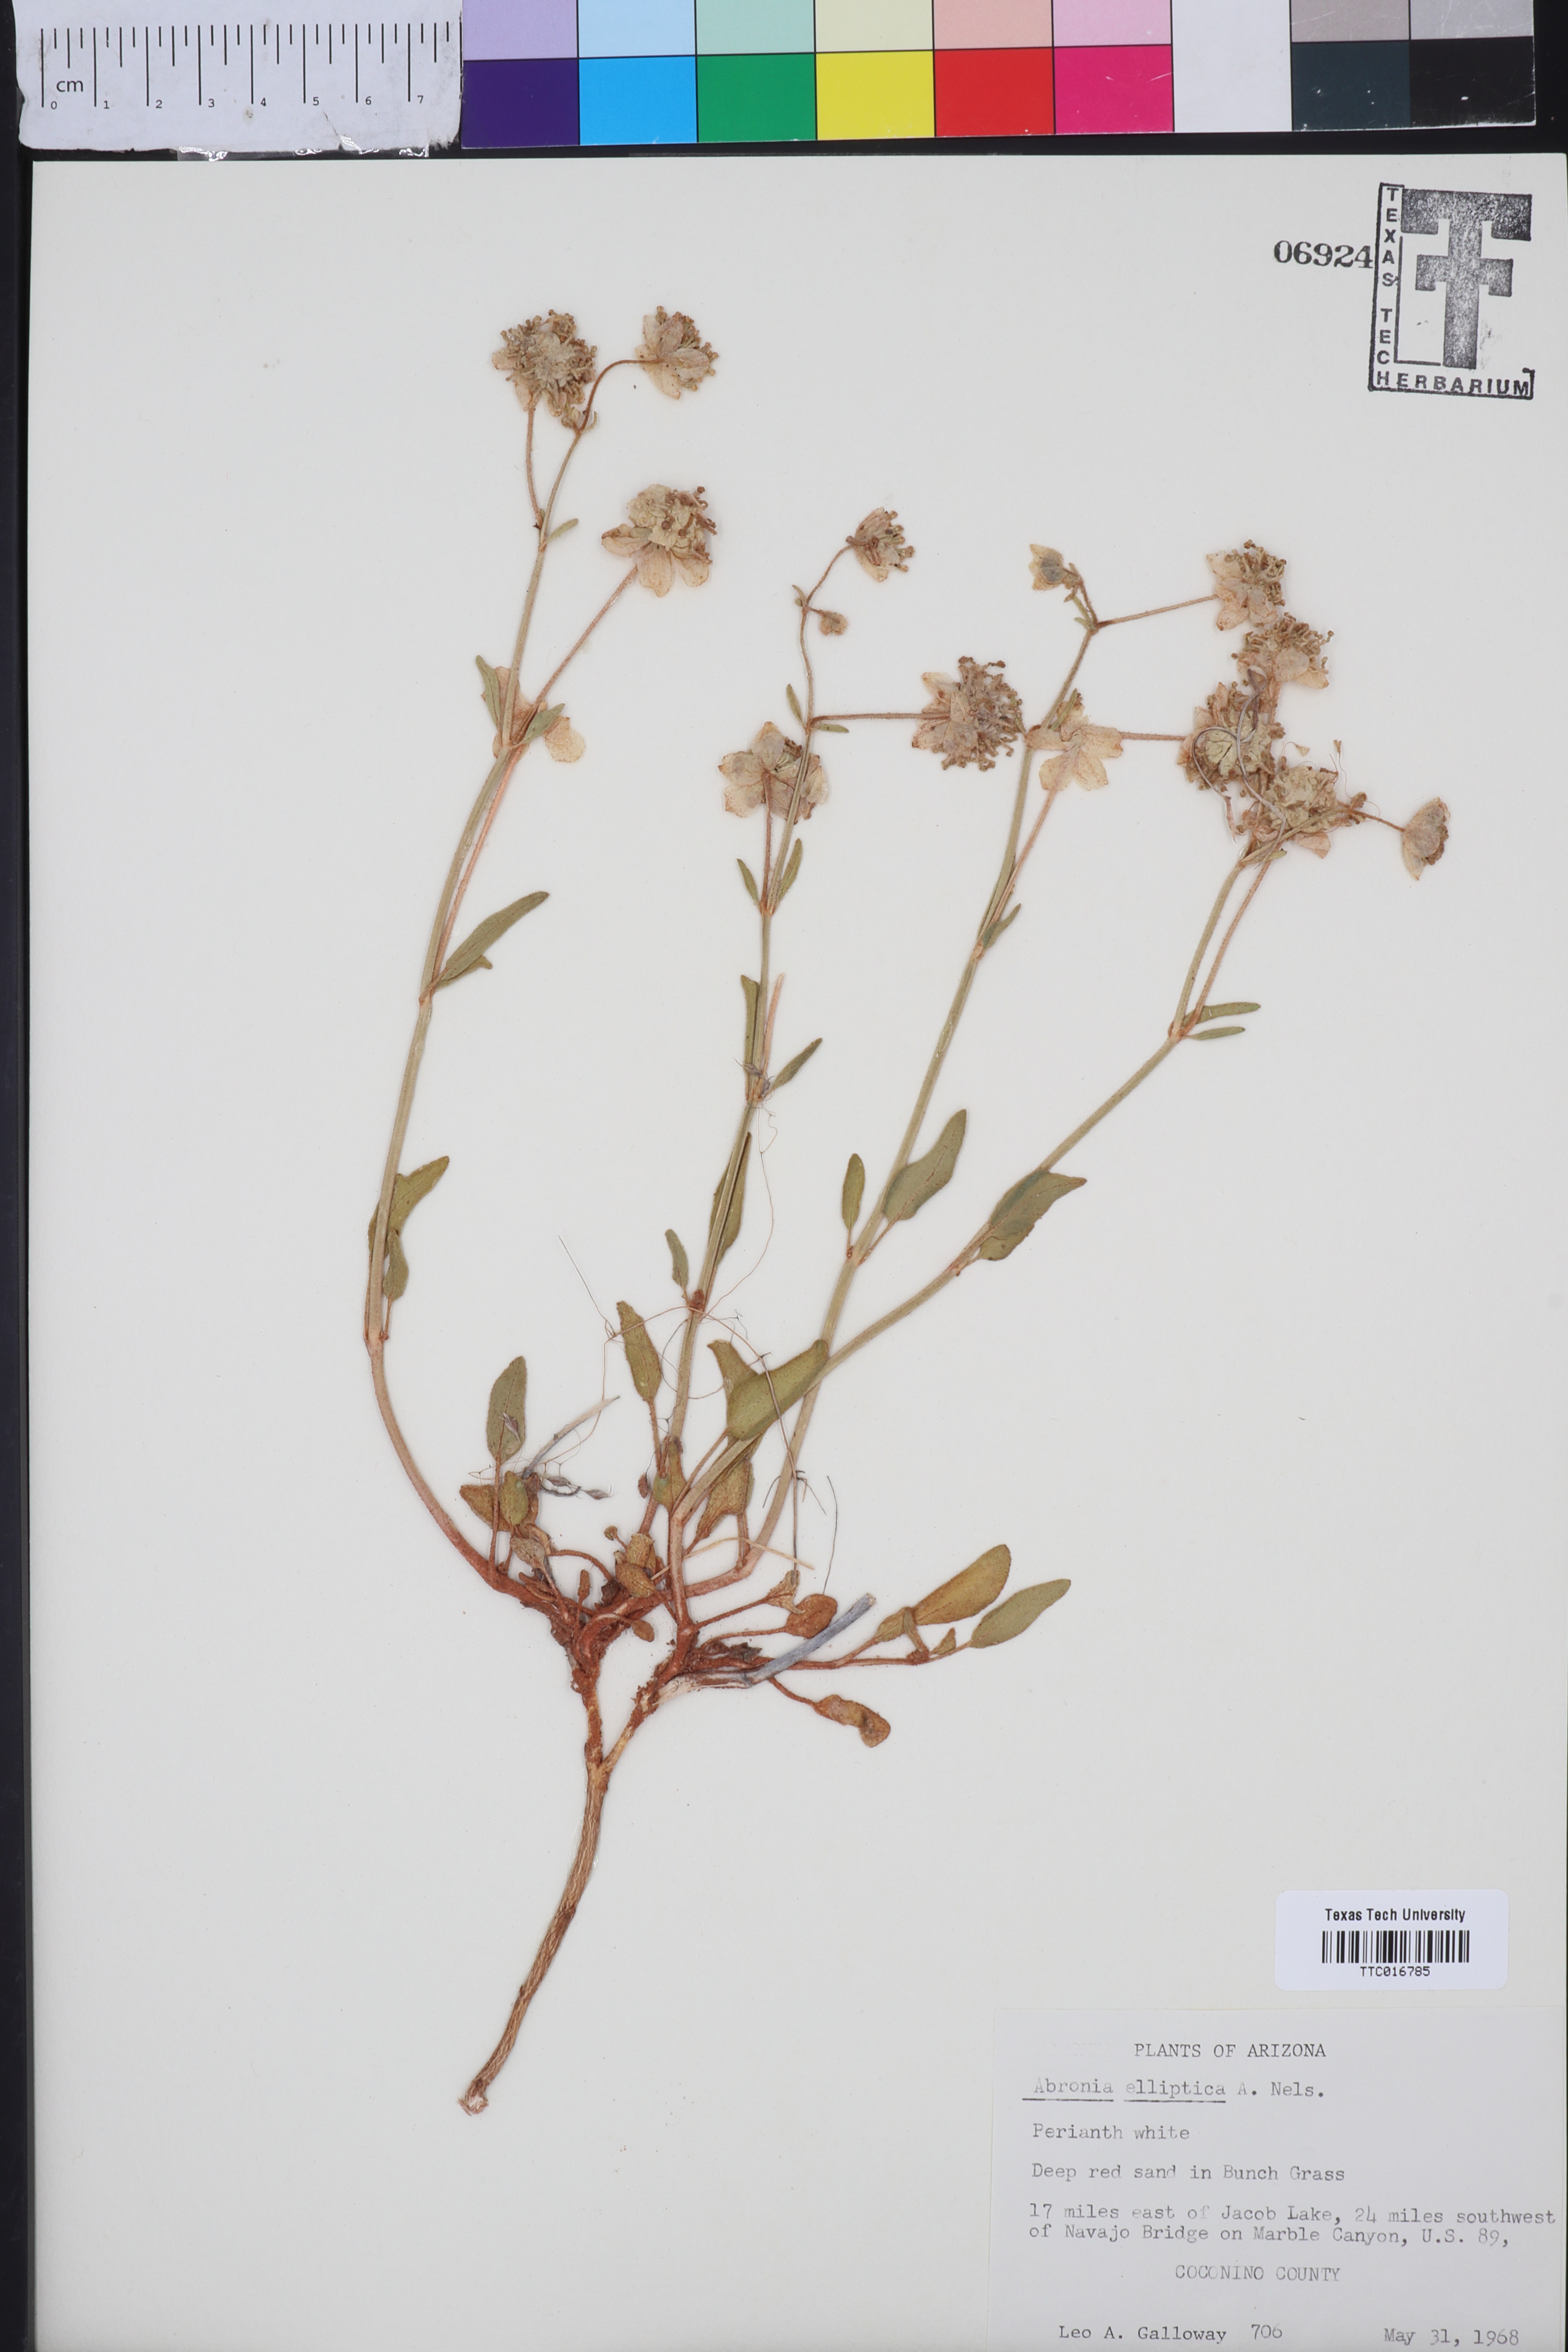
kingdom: Plantae
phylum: Tracheophyta
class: Magnoliopsida
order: Caryophyllales
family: Nyctaginaceae
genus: Abronia
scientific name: Abronia elliptica
